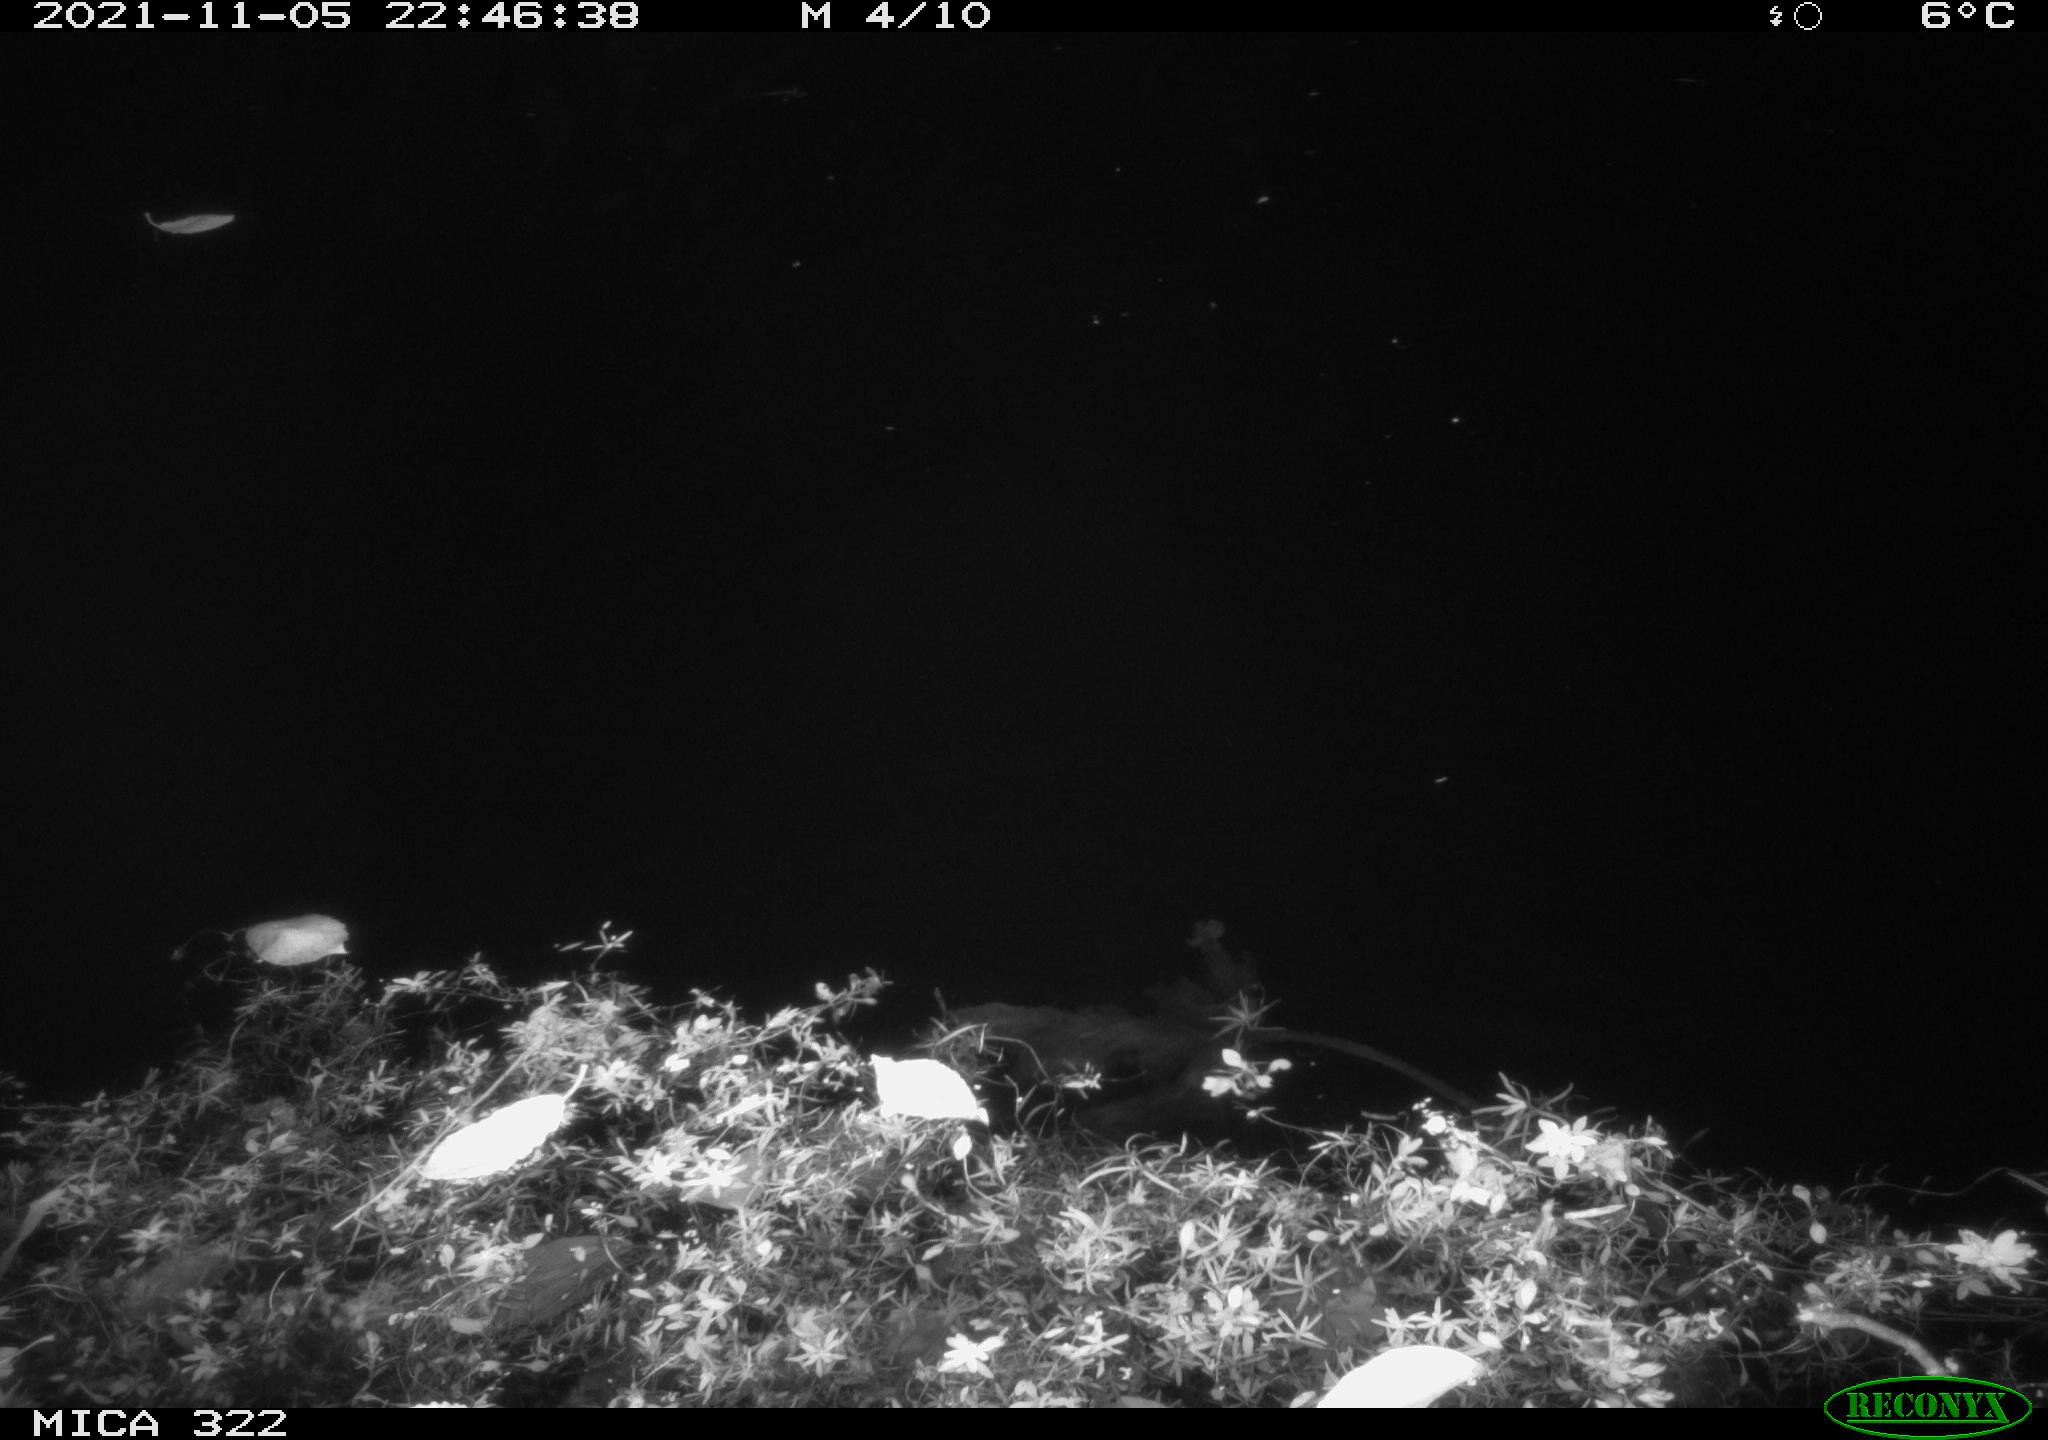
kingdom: Animalia
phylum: Chordata
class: Mammalia
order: Rodentia
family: Muridae
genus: Rattus
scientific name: Rattus norvegicus
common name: Brown rat
